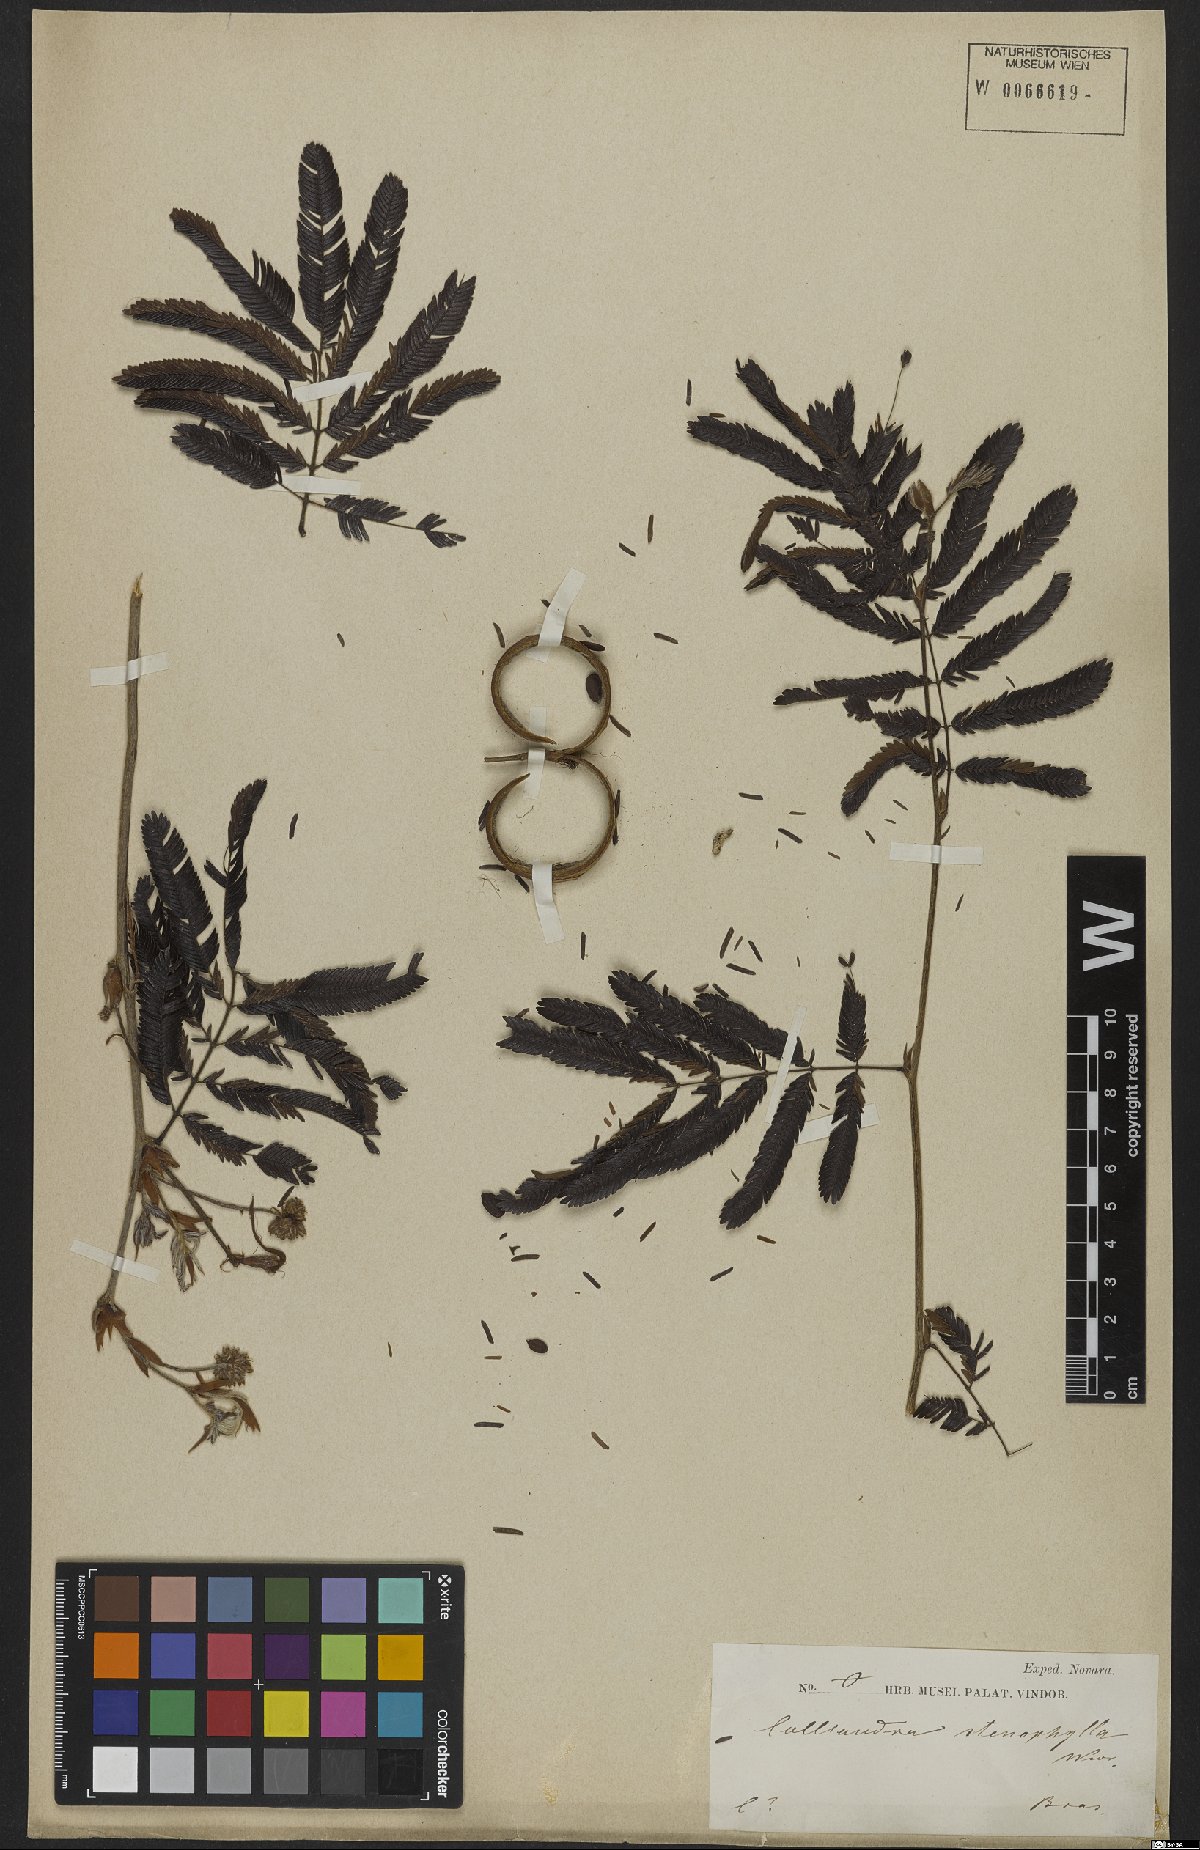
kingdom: Plantae
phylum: Tracheophyta
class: Magnoliopsida
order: Fabales
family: Fabaceae
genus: Calliandra
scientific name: Calliandra tweedii
